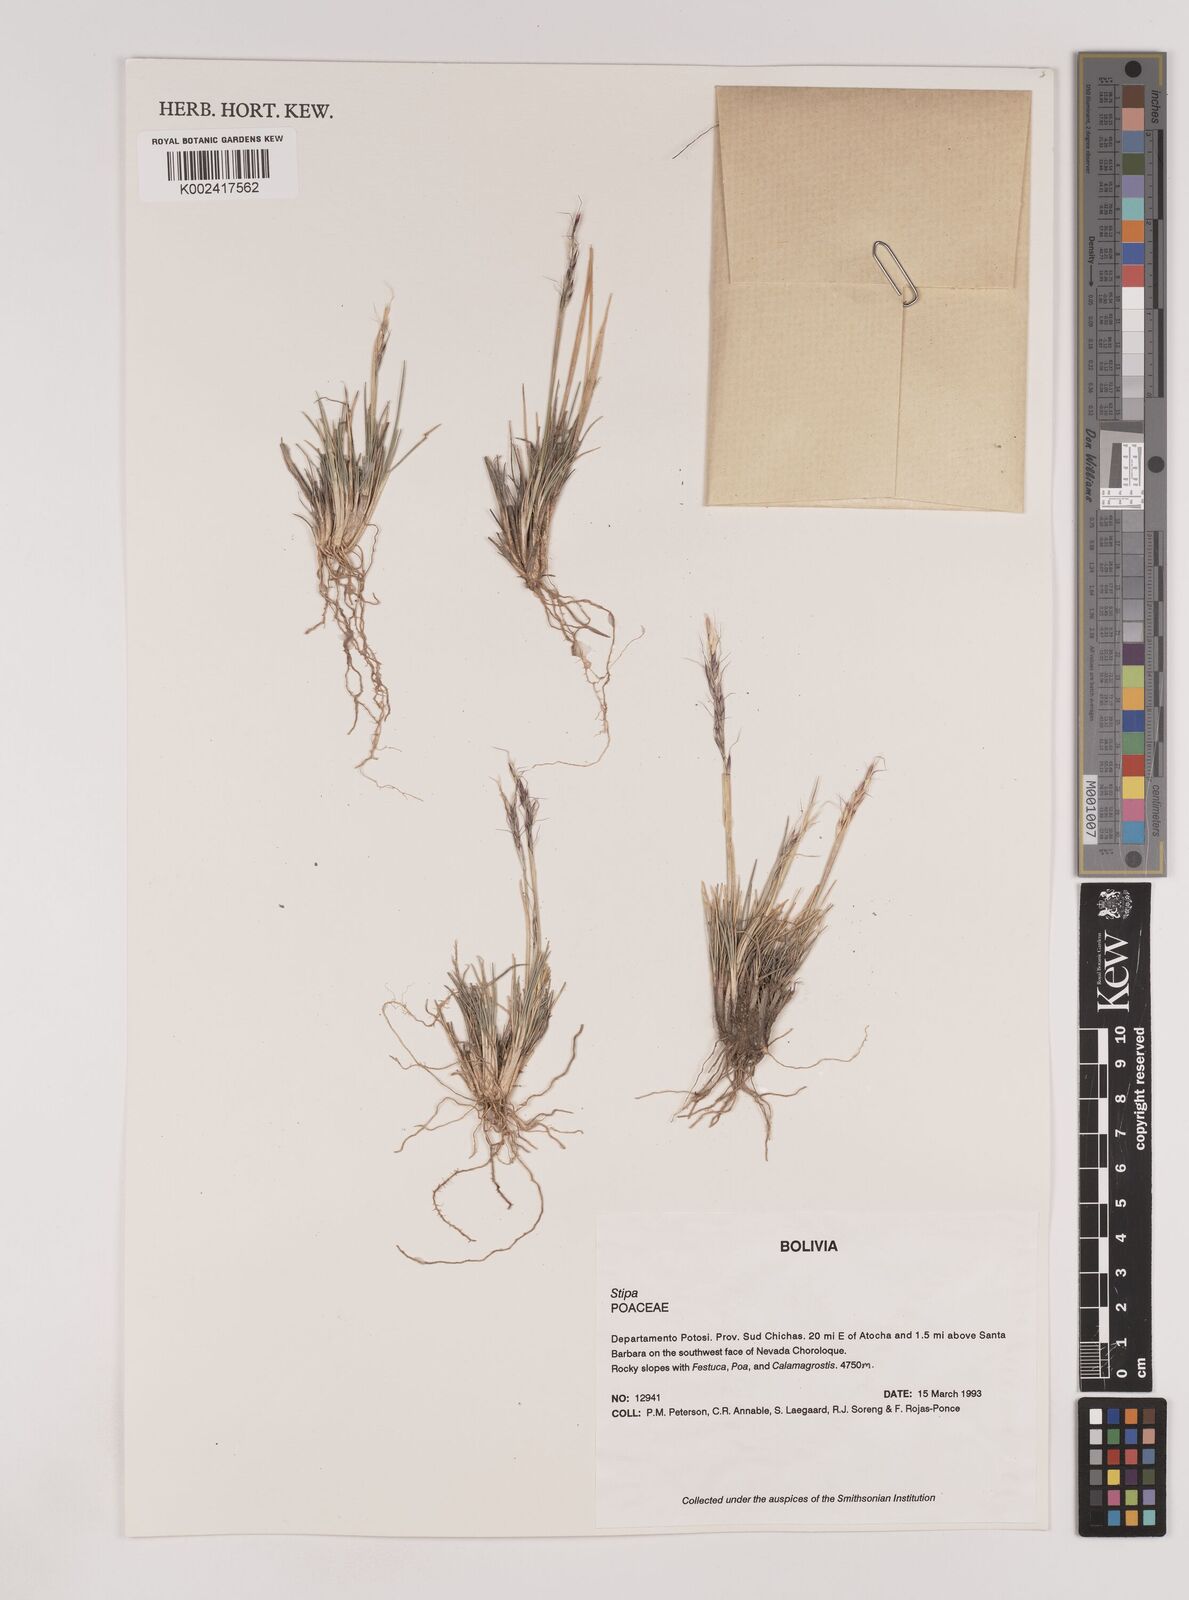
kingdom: Plantae
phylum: Tracheophyta
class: Liliopsida
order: Poales
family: Poaceae
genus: Nassella
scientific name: Nassella rupestris
